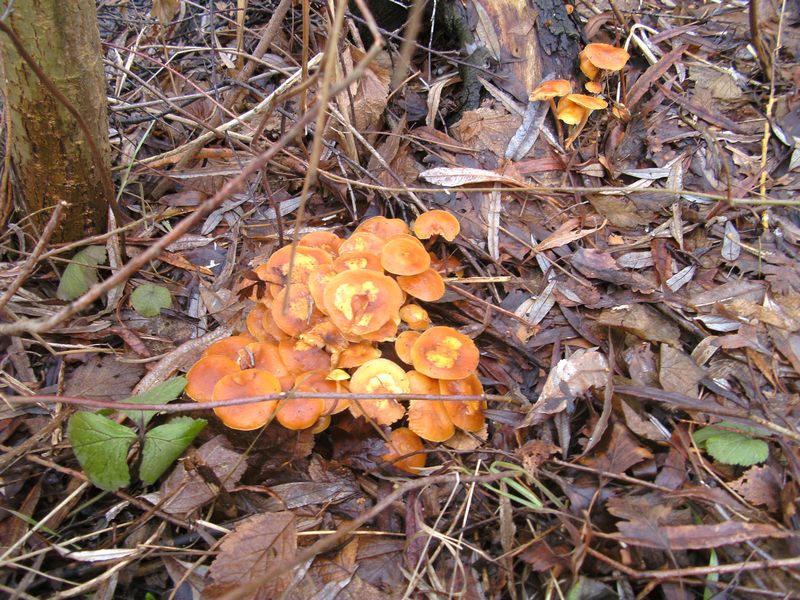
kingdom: Fungi
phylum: Basidiomycota
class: Agaricomycetes
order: Agaricales
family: Physalacriaceae
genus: Flammulina
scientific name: Flammulina elastica
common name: pile-fløjlsfod
